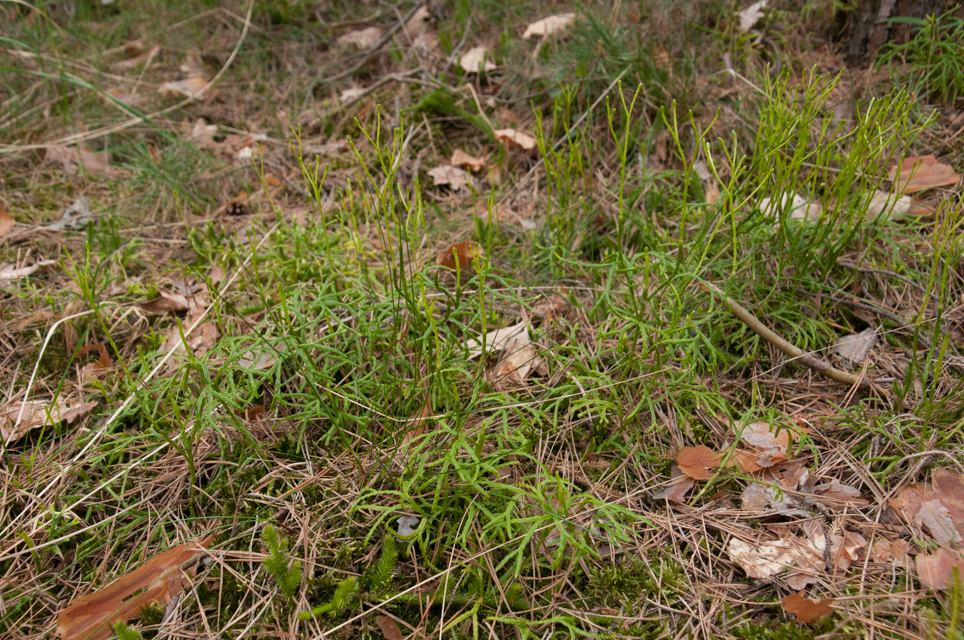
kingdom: Plantae
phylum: Tracheophyta
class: Lycopodiopsida
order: Lycopodiales
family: Lycopodiaceae
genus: Diphasiastrum
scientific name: Diphasiastrum complanatum
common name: Northern running-pine
